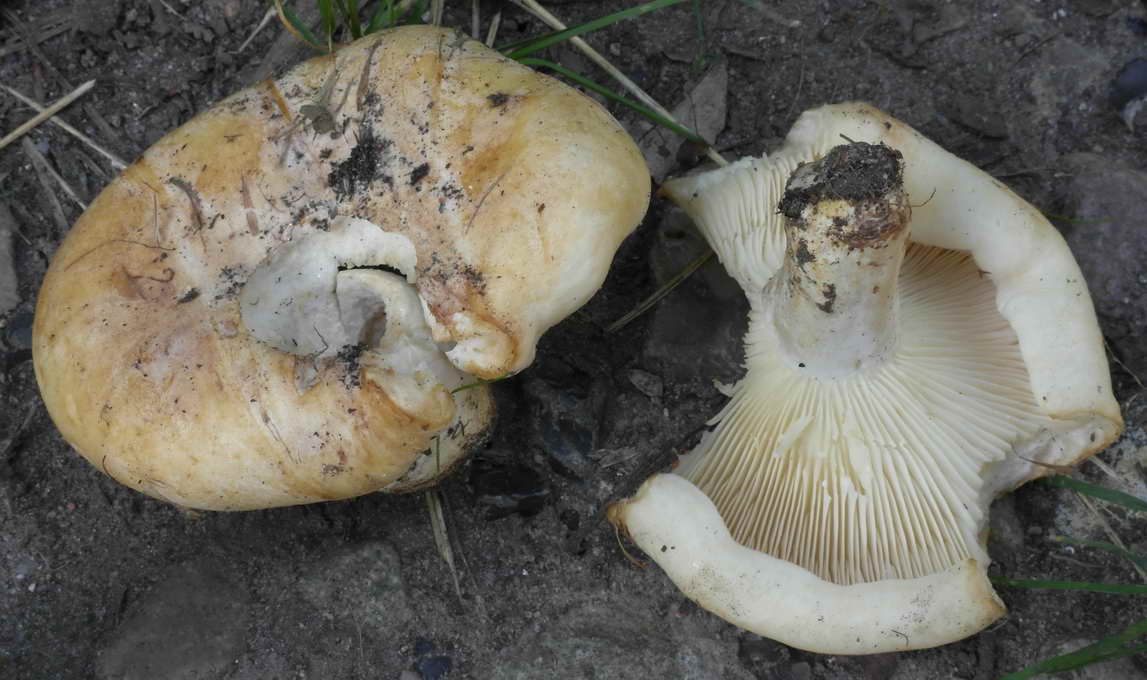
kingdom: Fungi
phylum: Basidiomycota
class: Agaricomycetes
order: Russulales
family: Russulaceae
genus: Lactarius
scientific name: Lactarius evosmus
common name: bæltet mælkehat
